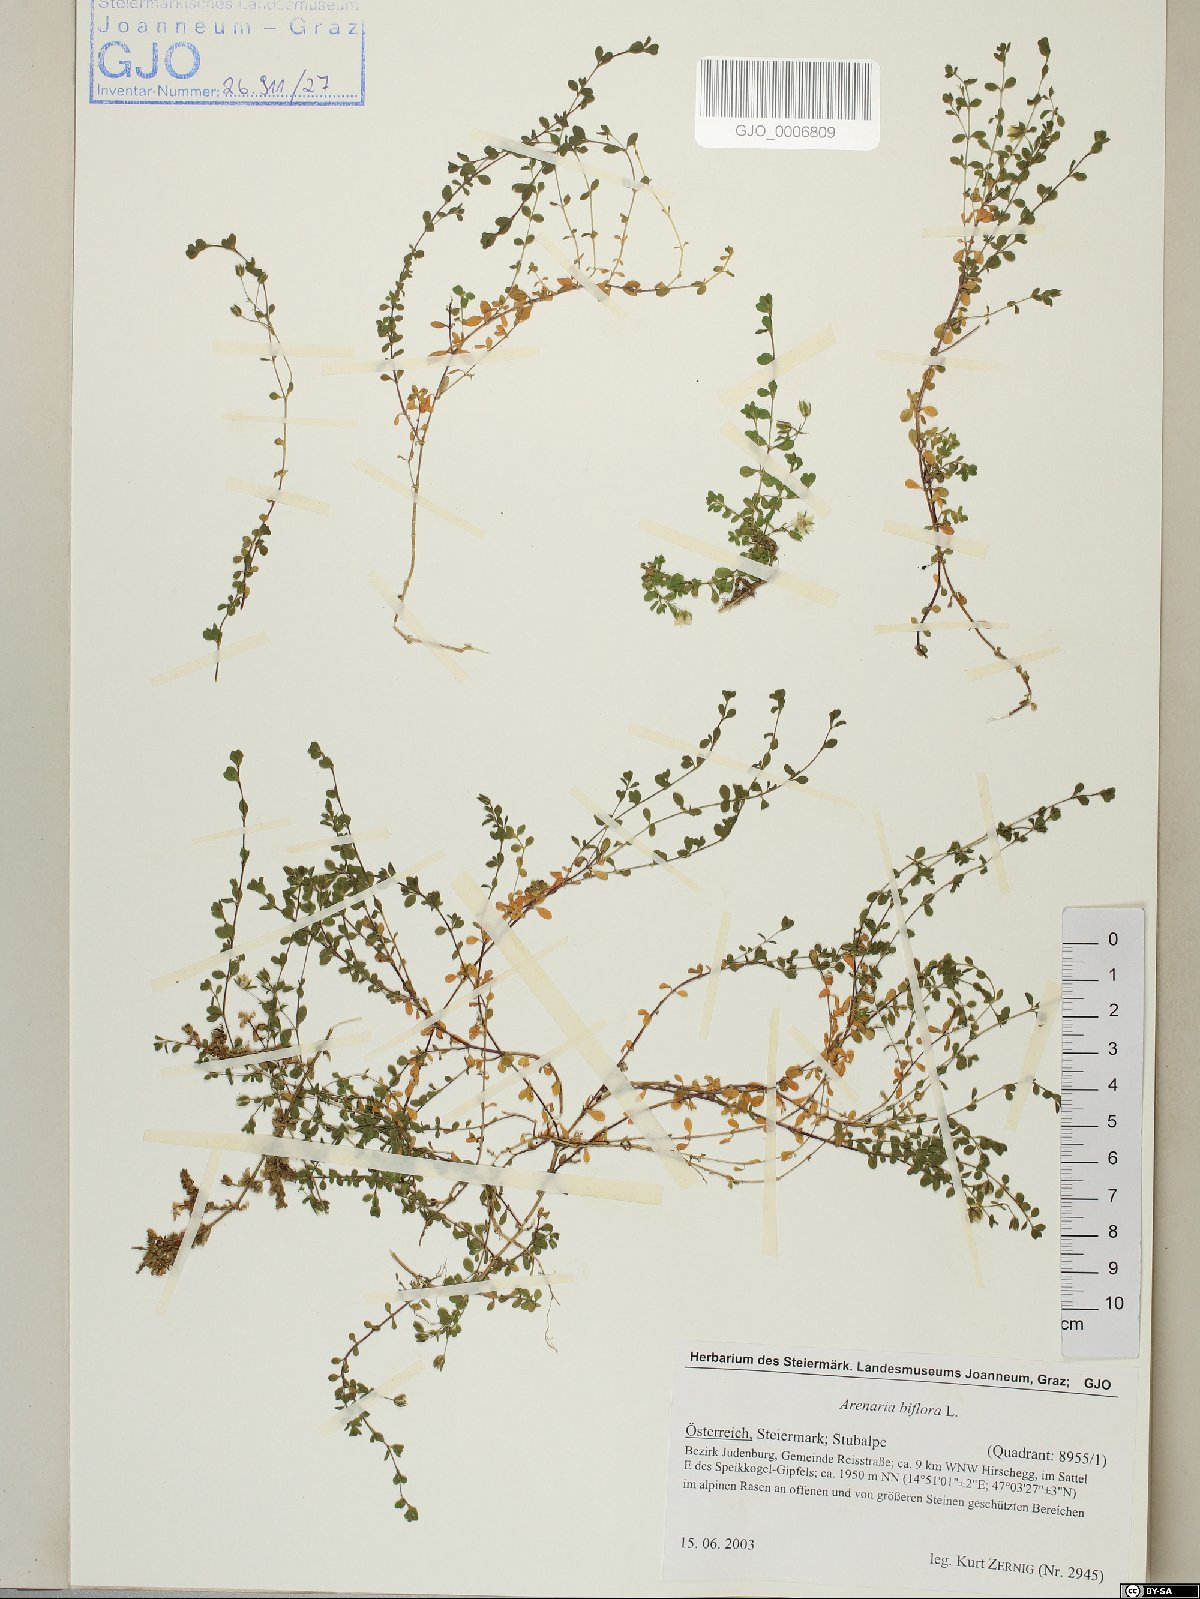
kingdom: Plantae
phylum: Tracheophyta
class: Magnoliopsida
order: Caryophyllales
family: Caryophyllaceae
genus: Arenaria
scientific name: Arenaria biflora
